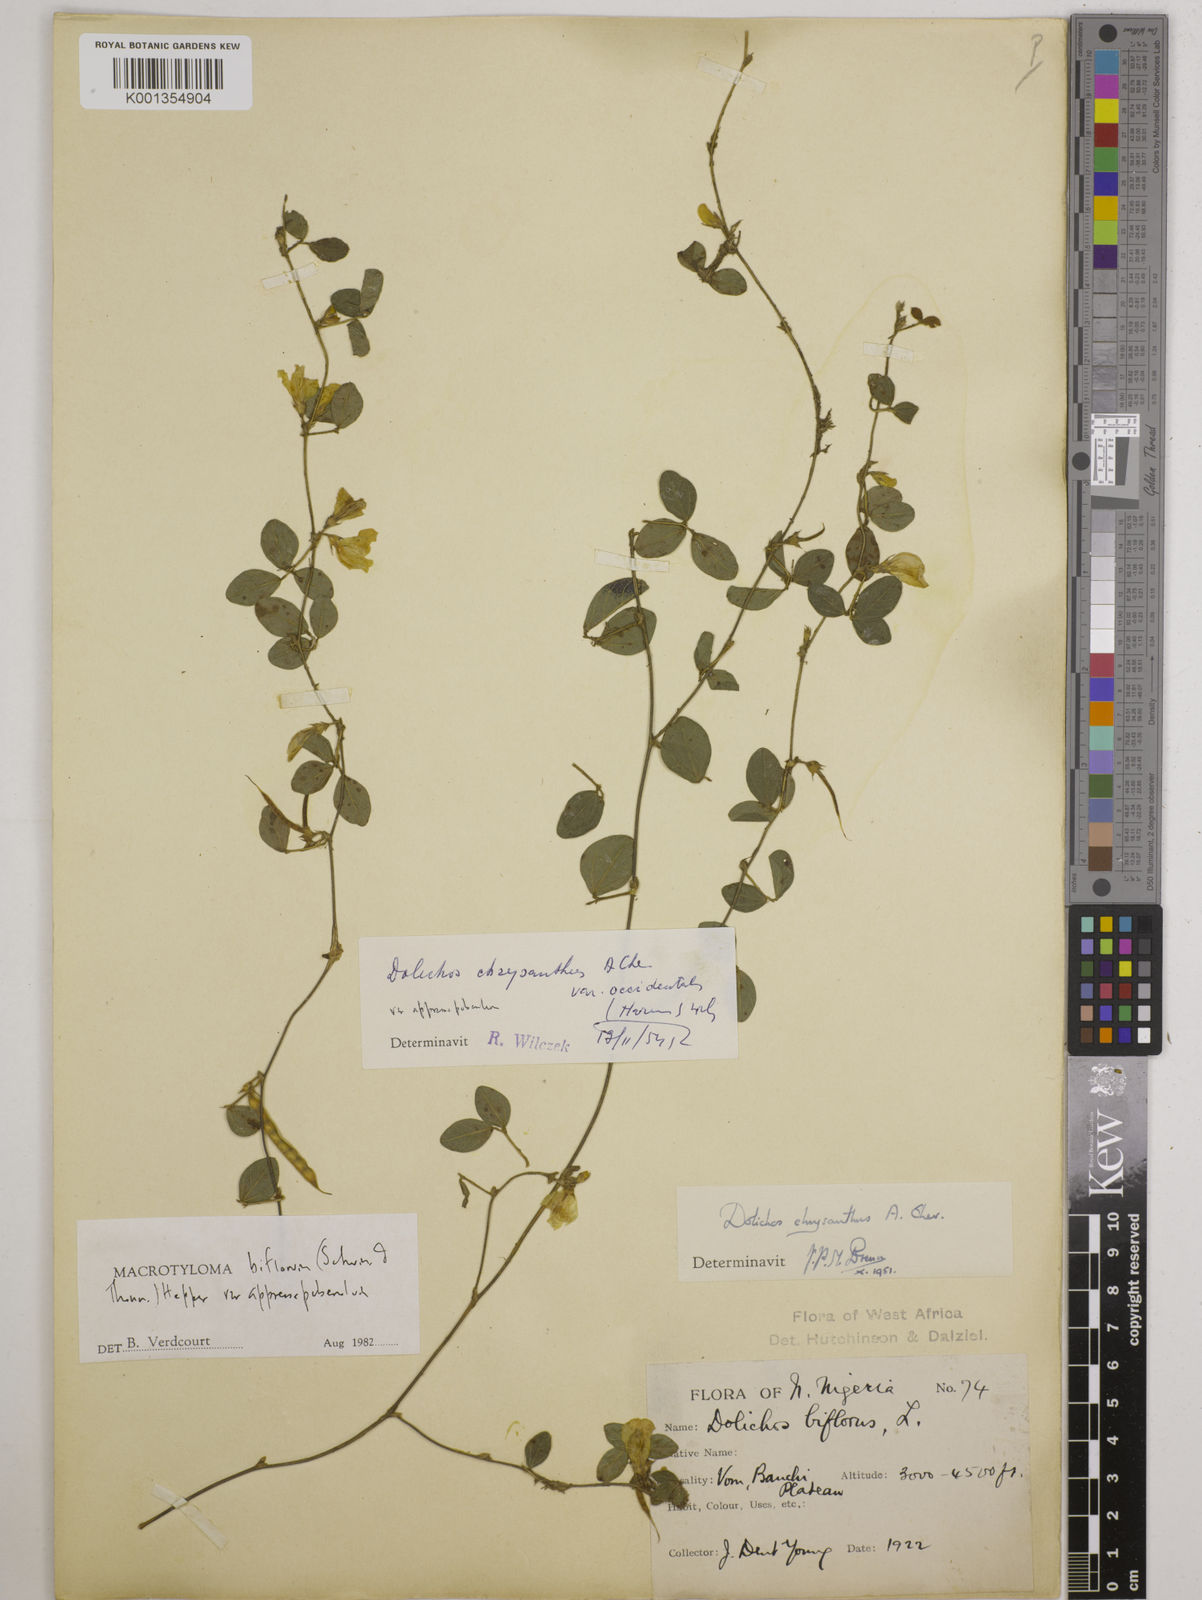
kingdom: Plantae
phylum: Tracheophyta
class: Magnoliopsida
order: Fabales
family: Fabaceae
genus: Macrotyloma
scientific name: Macrotyloma biflorum
